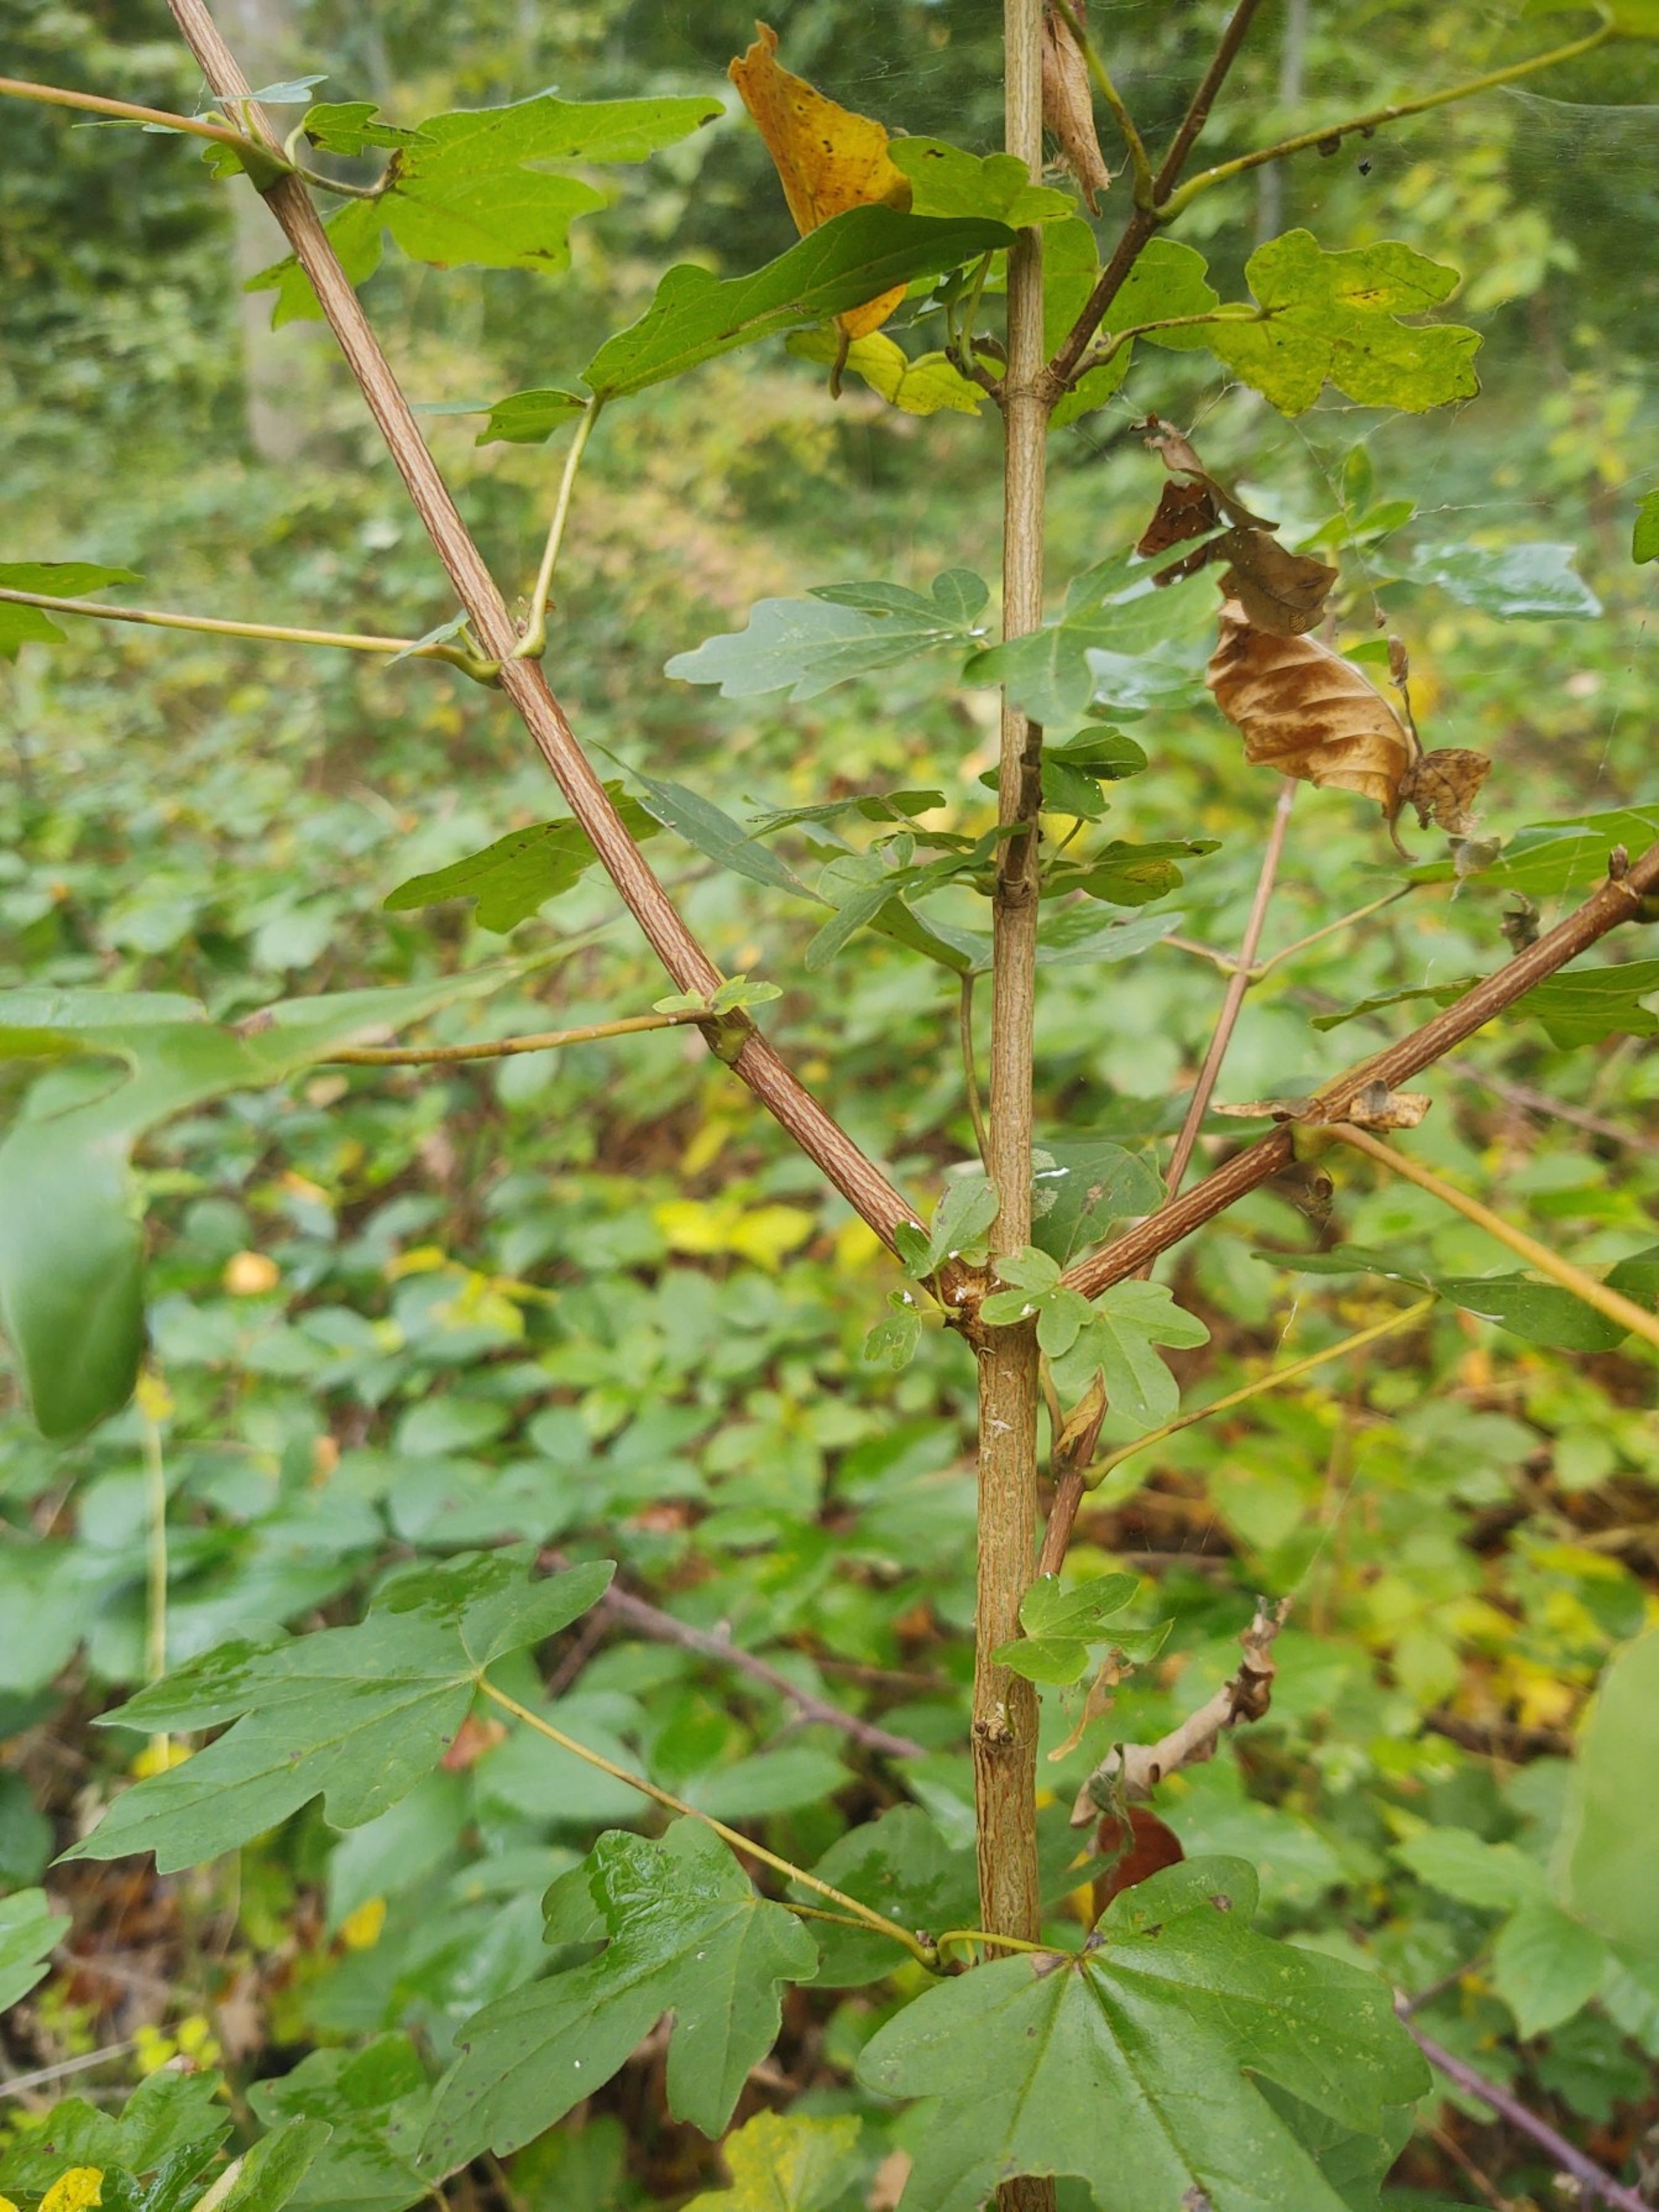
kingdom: Plantae
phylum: Tracheophyta
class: Magnoliopsida
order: Sapindales
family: Sapindaceae
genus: Acer
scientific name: Acer campestre
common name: Navr
